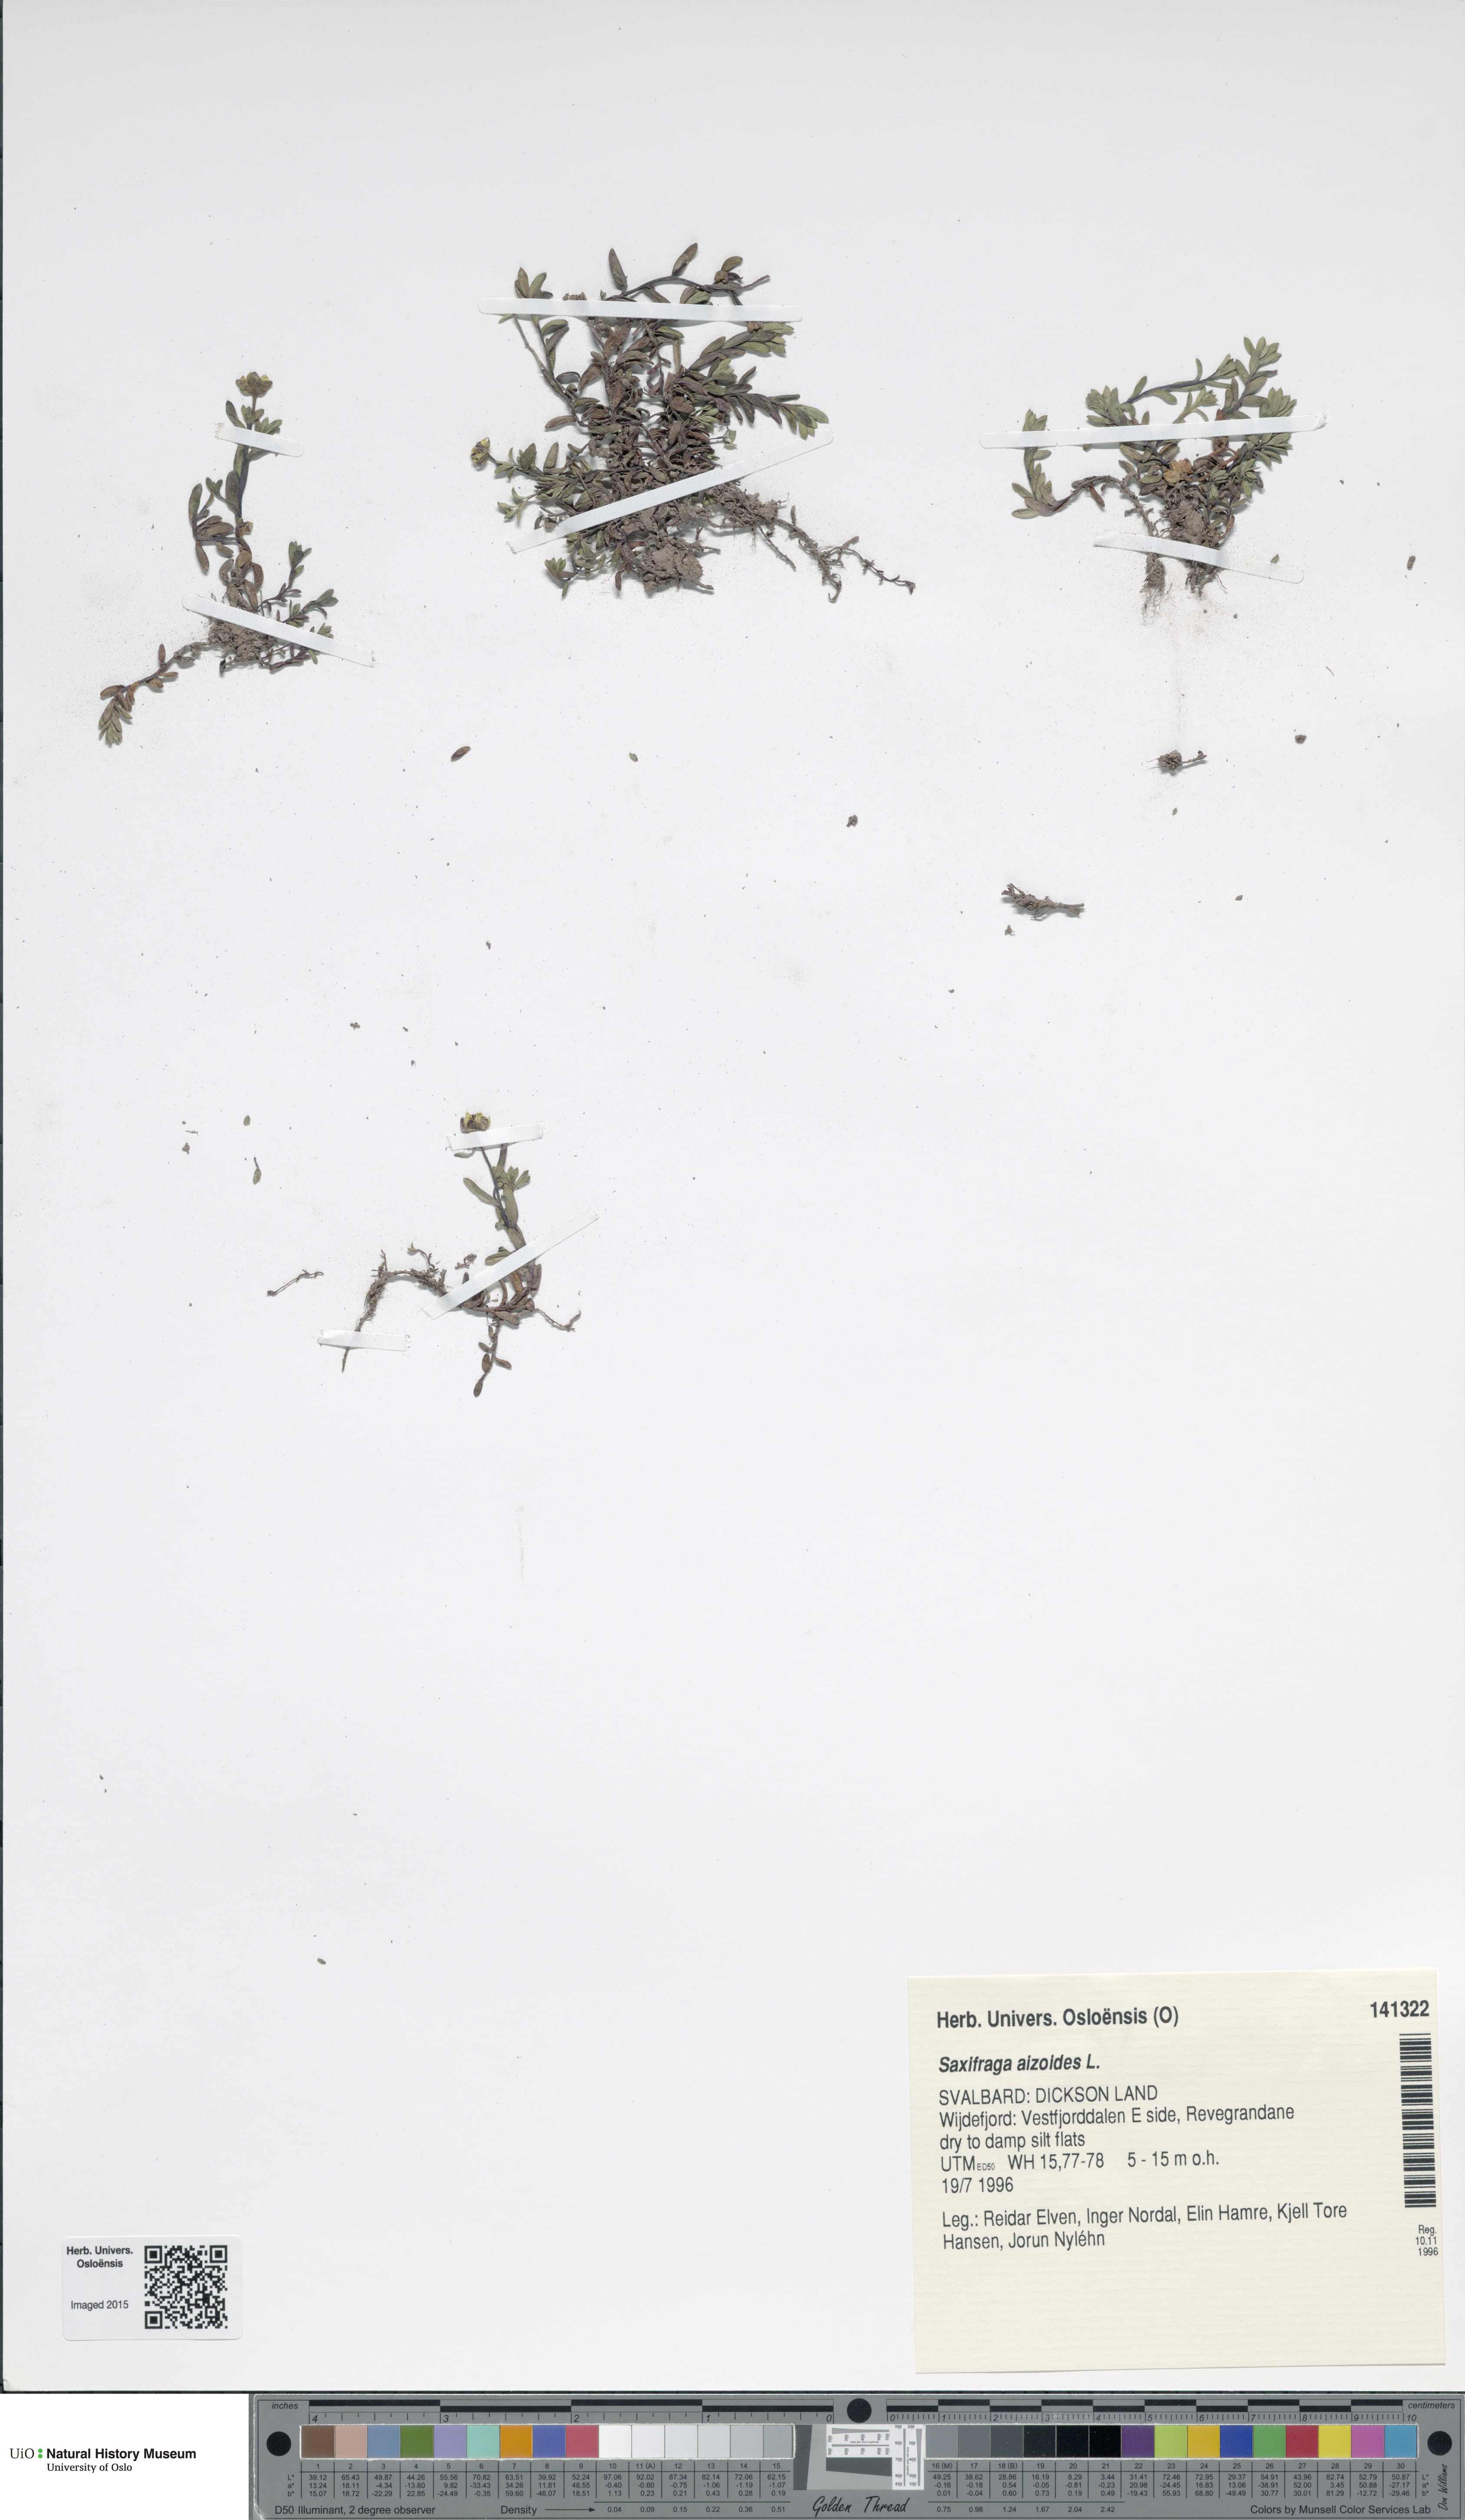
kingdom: Plantae
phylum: Tracheophyta
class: Magnoliopsida
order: Saxifragales
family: Saxifragaceae
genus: Saxifraga
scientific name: Saxifraga aizoides
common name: Yellow mountain saxifrage
